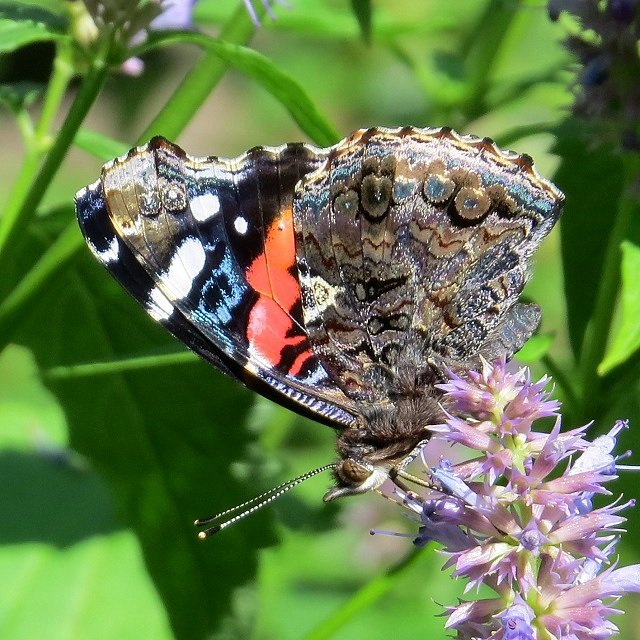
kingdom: Animalia
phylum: Arthropoda
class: Insecta
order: Lepidoptera
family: Nymphalidae
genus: Vanessa
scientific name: Vanessa atalanta
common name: Red Admiral
